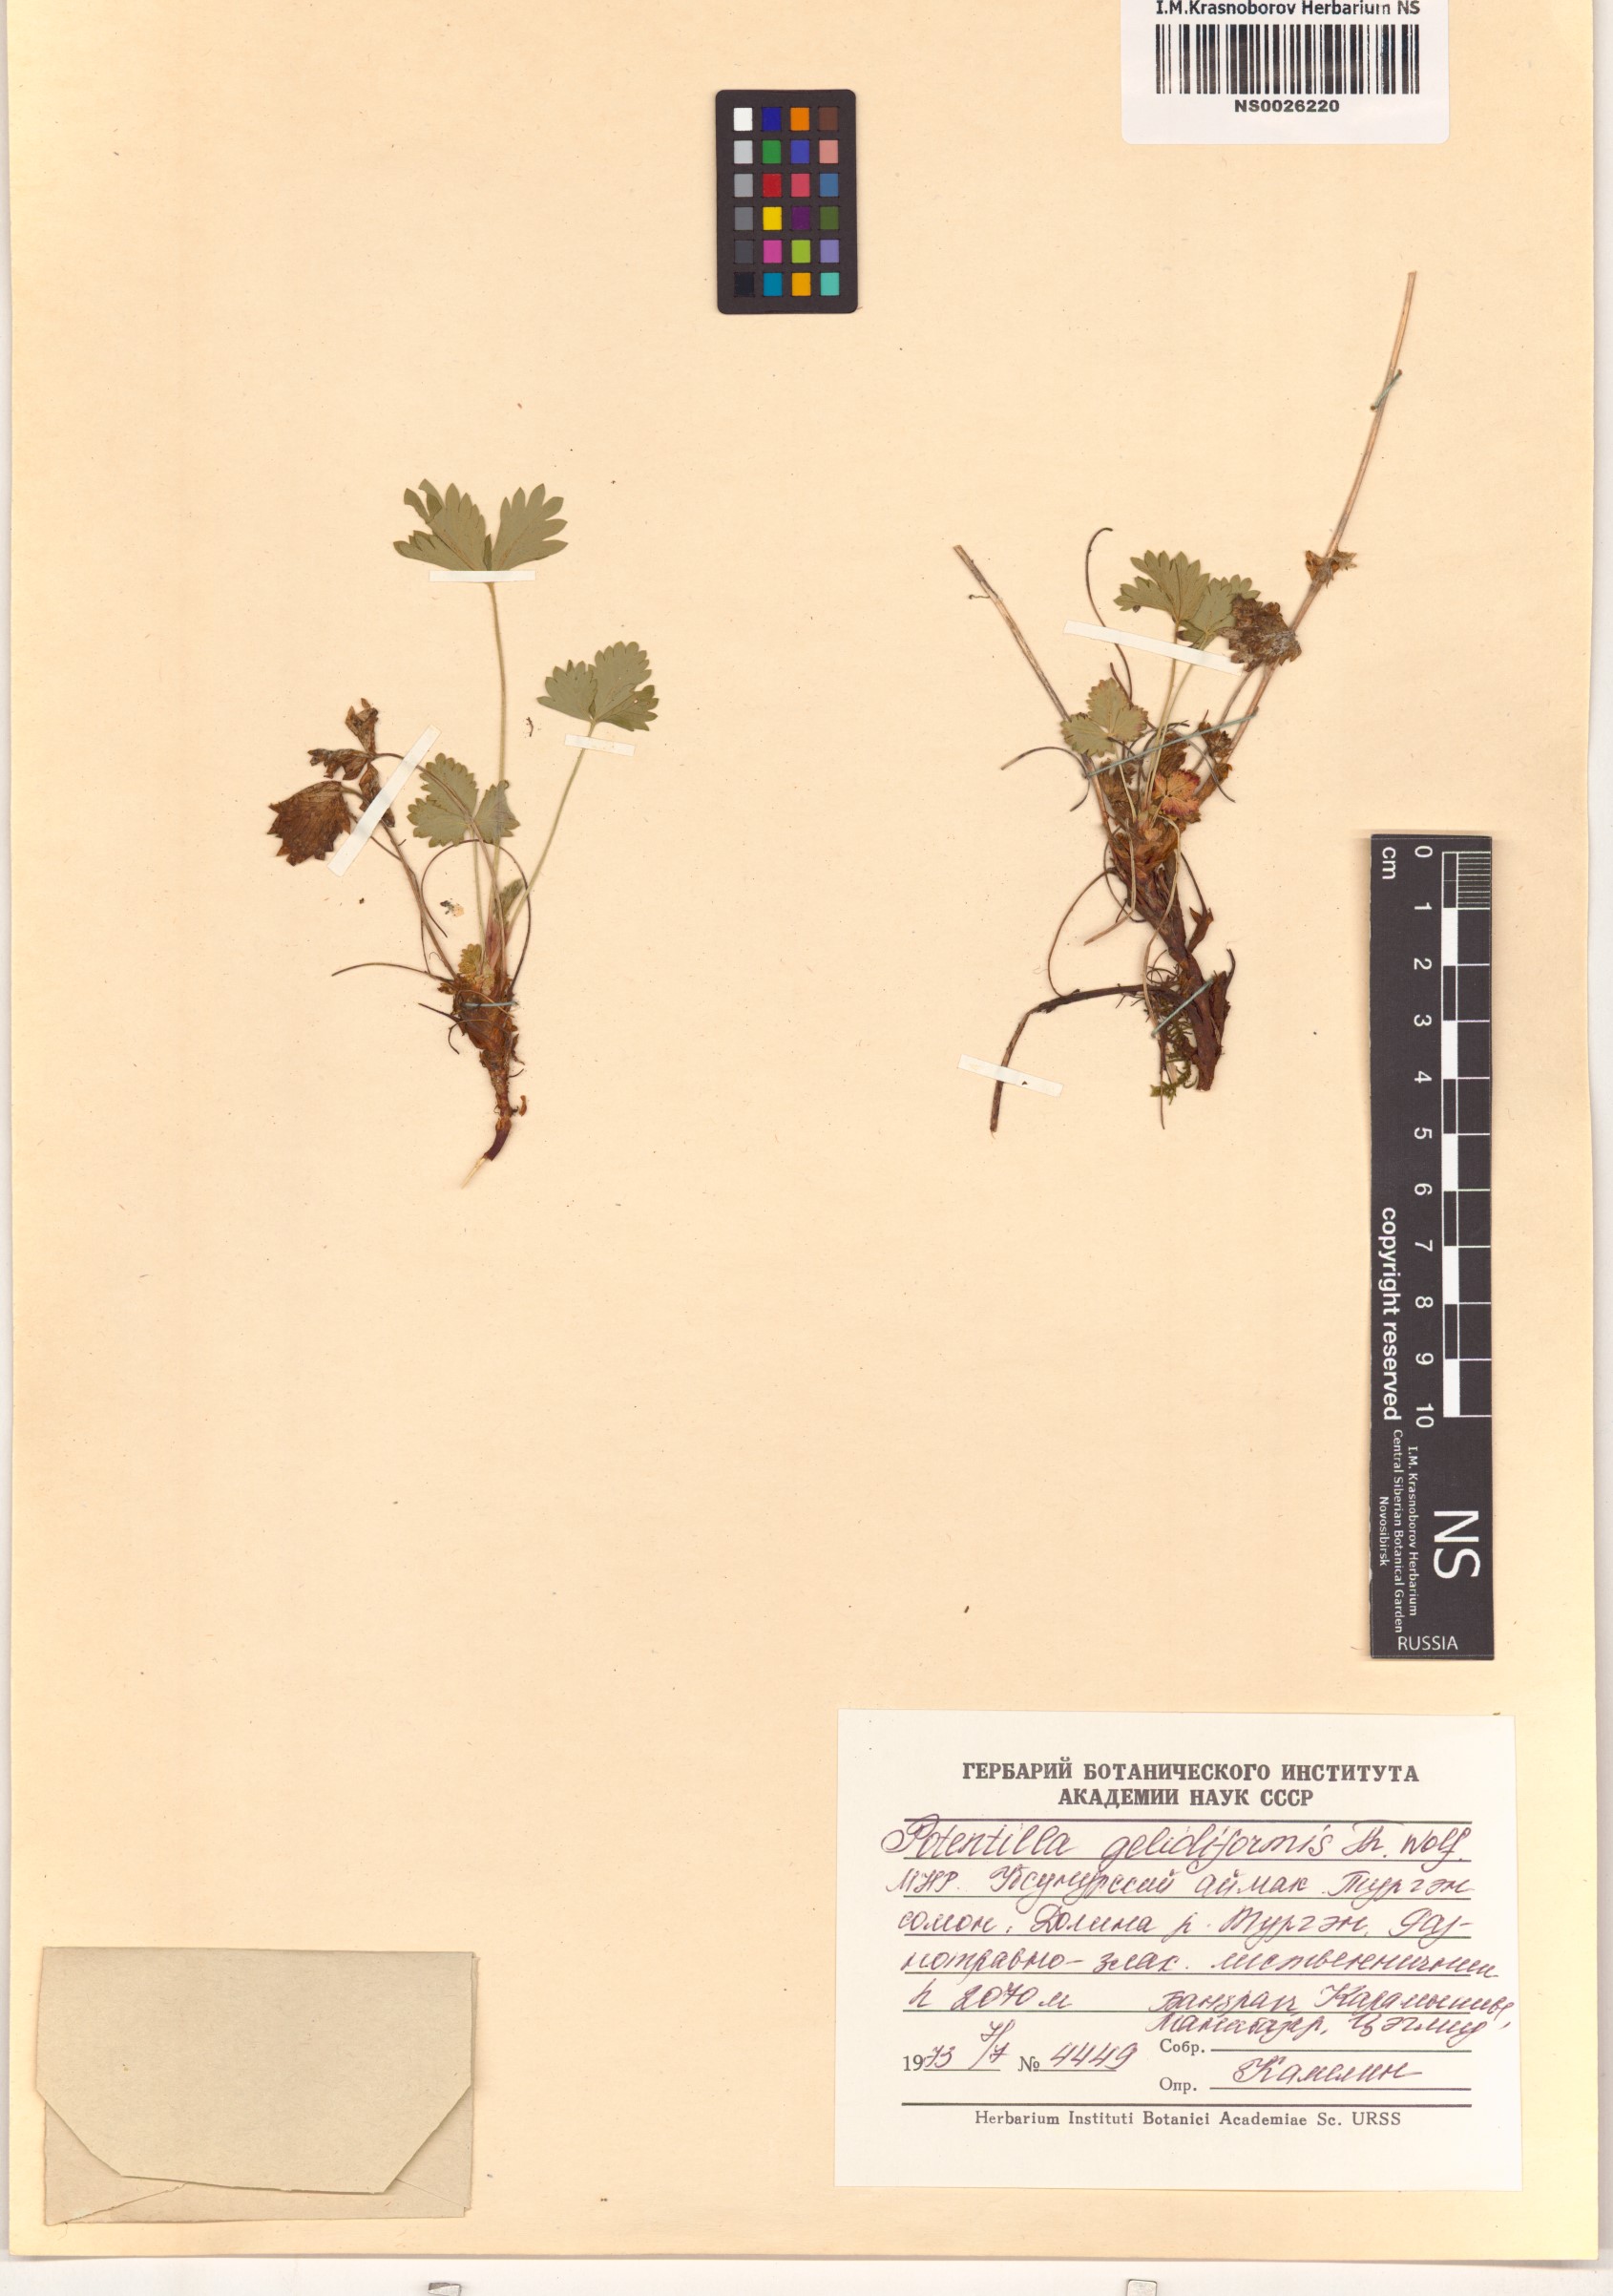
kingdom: Plantae
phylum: Tracheophyta
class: Magnoliopsida
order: Rosales
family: Rosaceae
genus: Potentilla
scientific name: Potentilla crantzii
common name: Alpine cinquefoil
